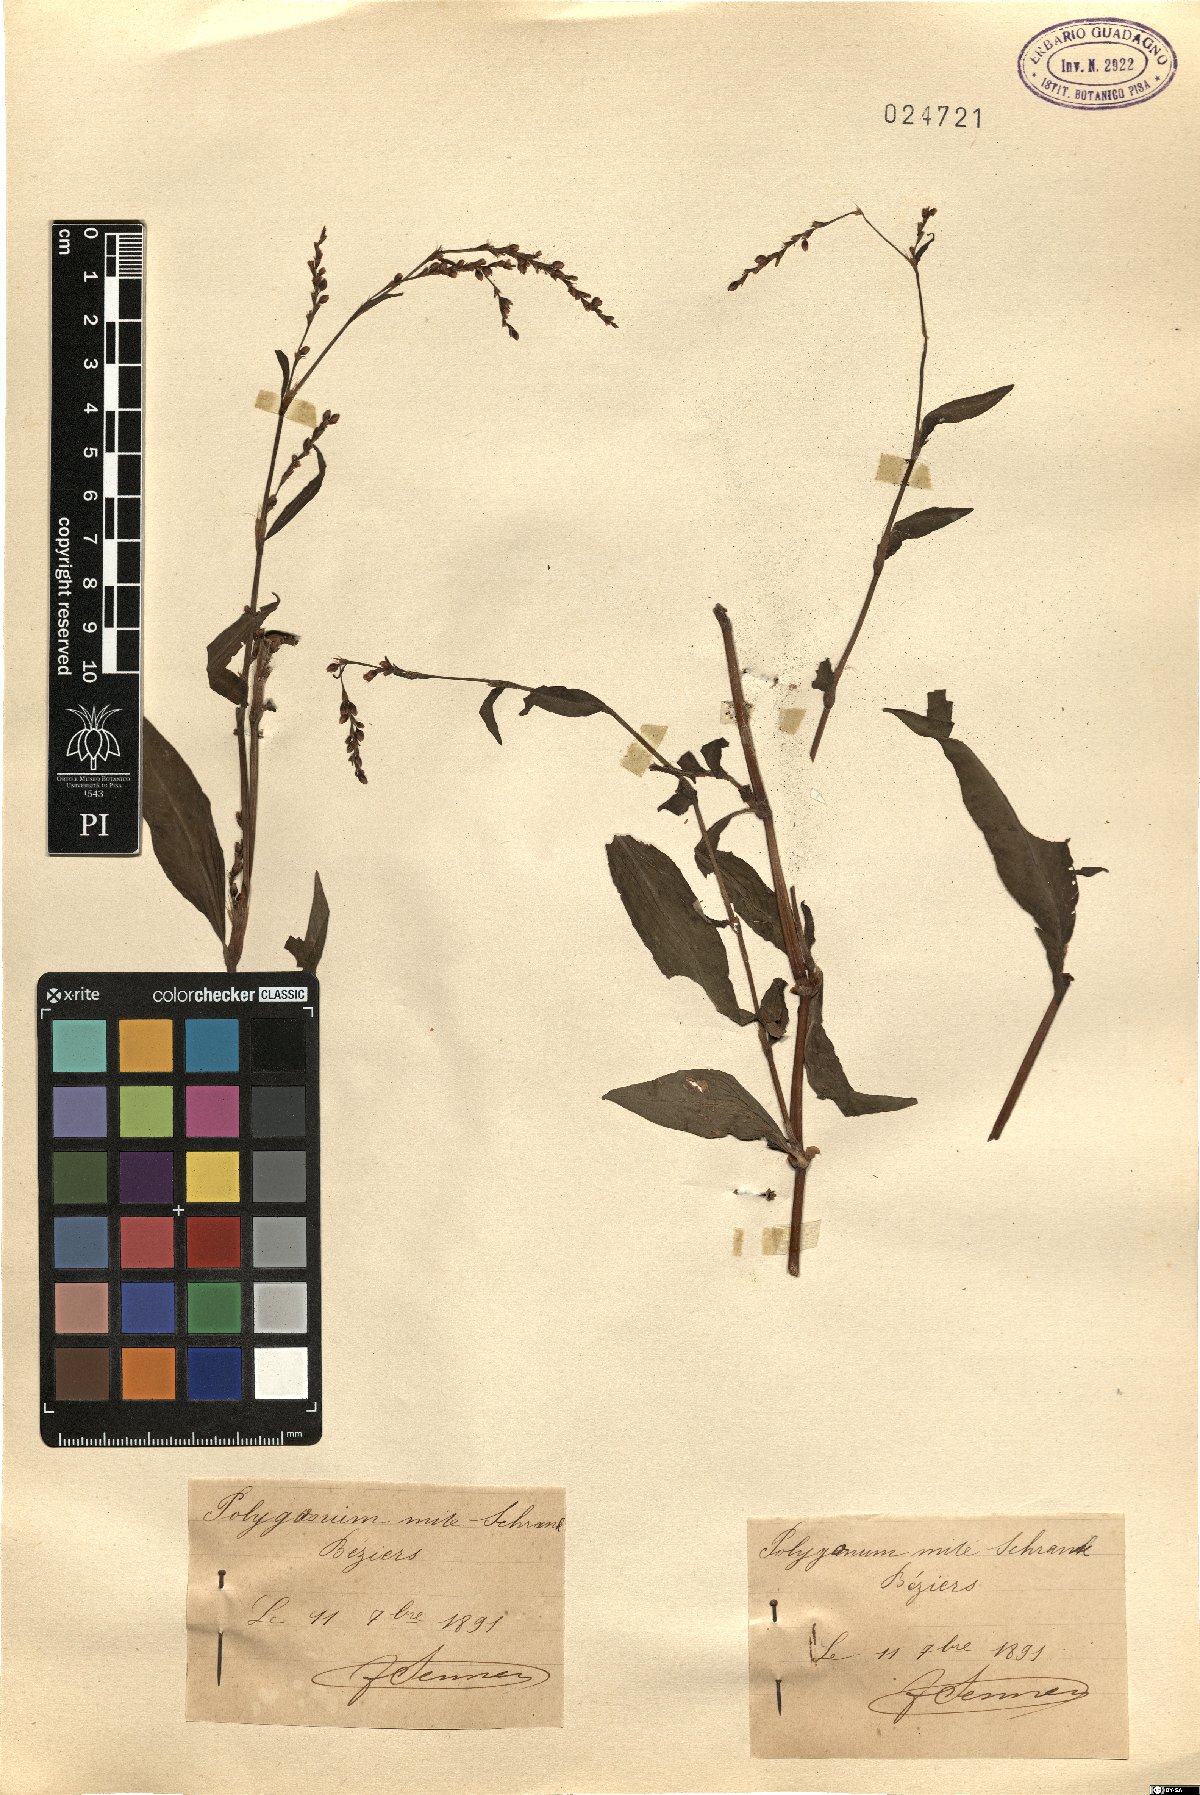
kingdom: Plantae
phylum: Tracheophyta
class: Magnoliopsida
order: Caryophyllales
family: Polygonaceae
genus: Persicaria
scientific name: Persicaria mitis
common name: Tasteless water-pepper
